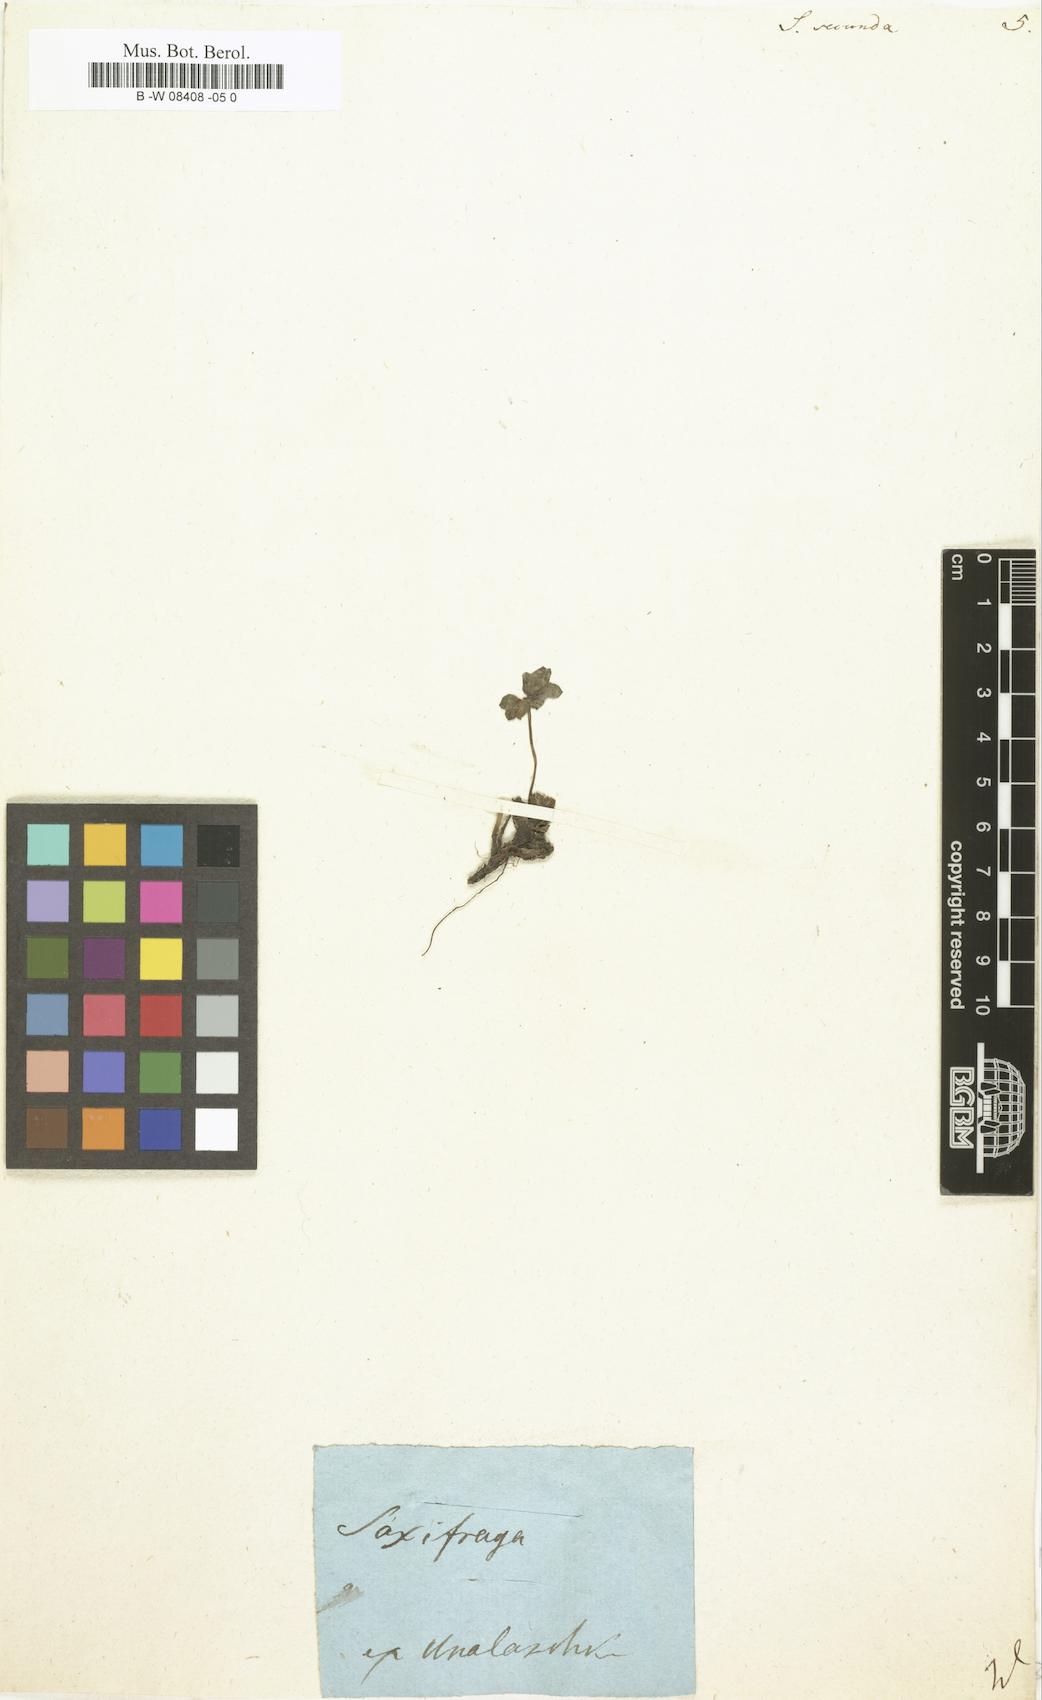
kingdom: Plantae
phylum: Tracheophyta
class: Magnoliopsida
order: Saxifragales
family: Saxifragaceae
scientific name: Saxifragaceae
